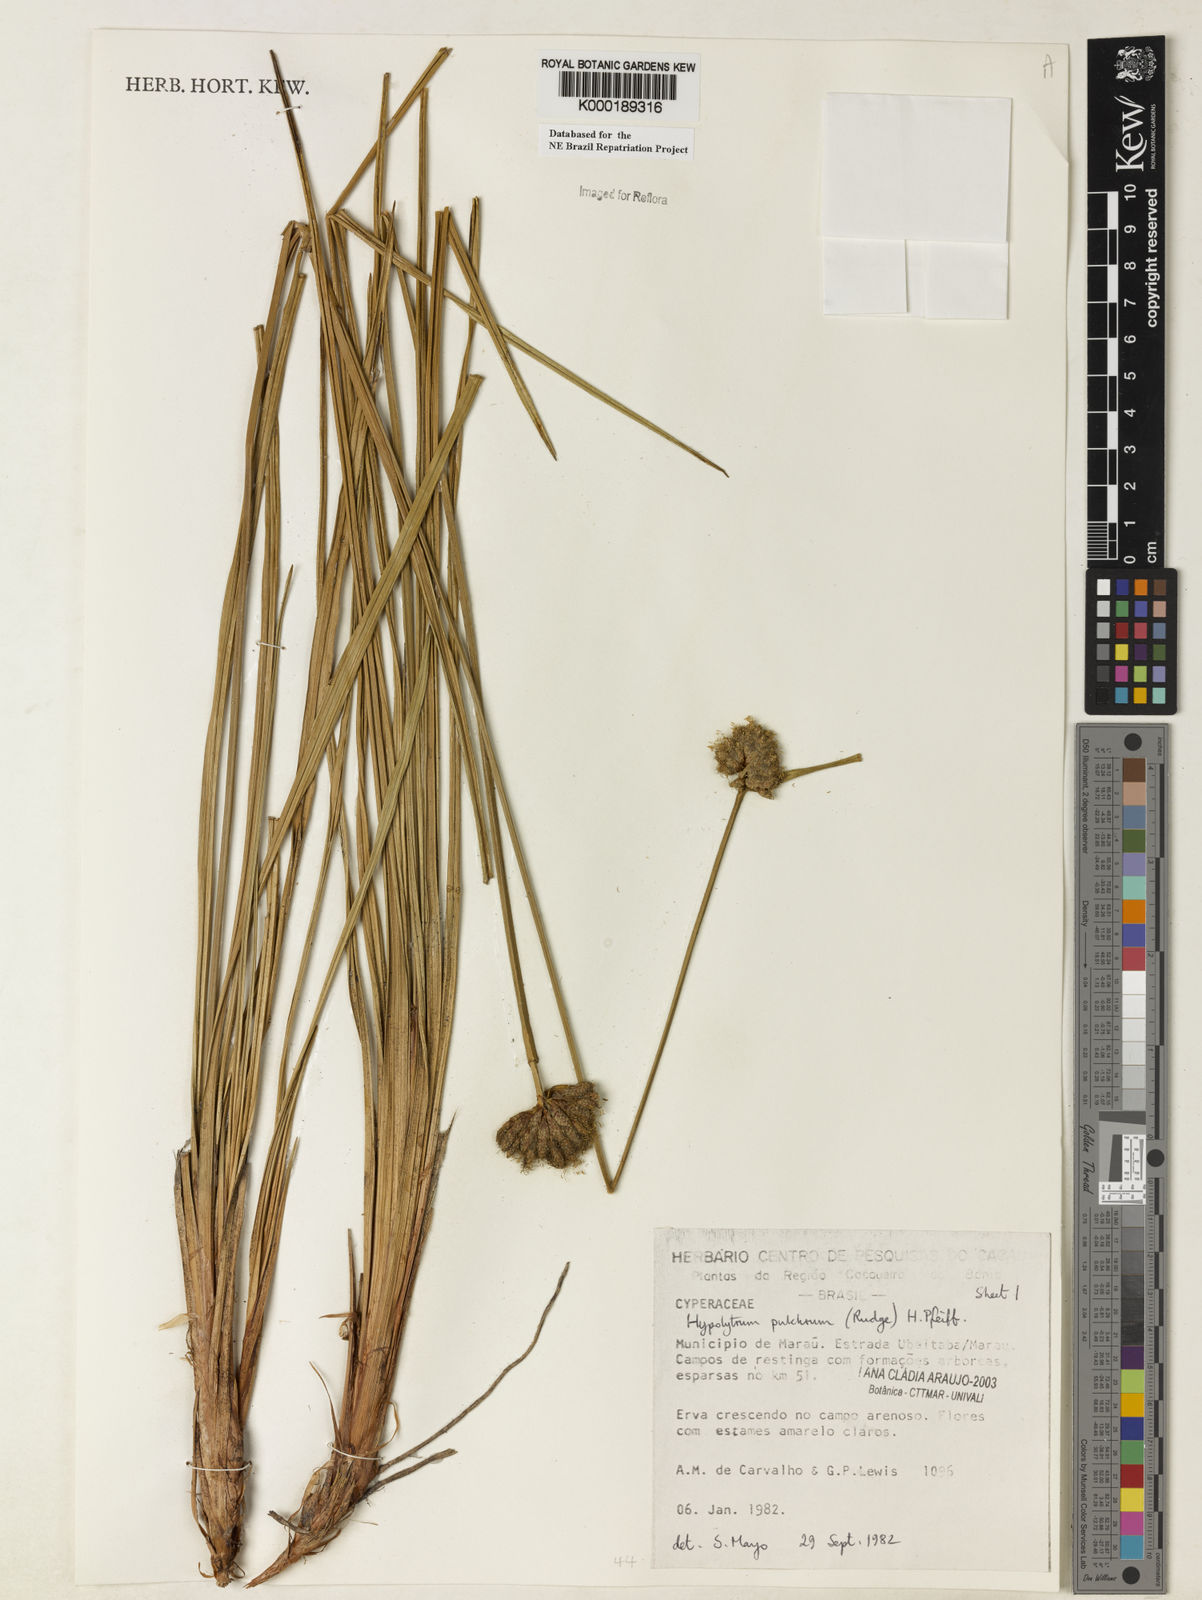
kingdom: Plantae
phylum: Tracheophyta
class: Liliopsida
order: Poales
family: Cyperaceae
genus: Hypolytrum
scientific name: Hypolytrum pulchrum
